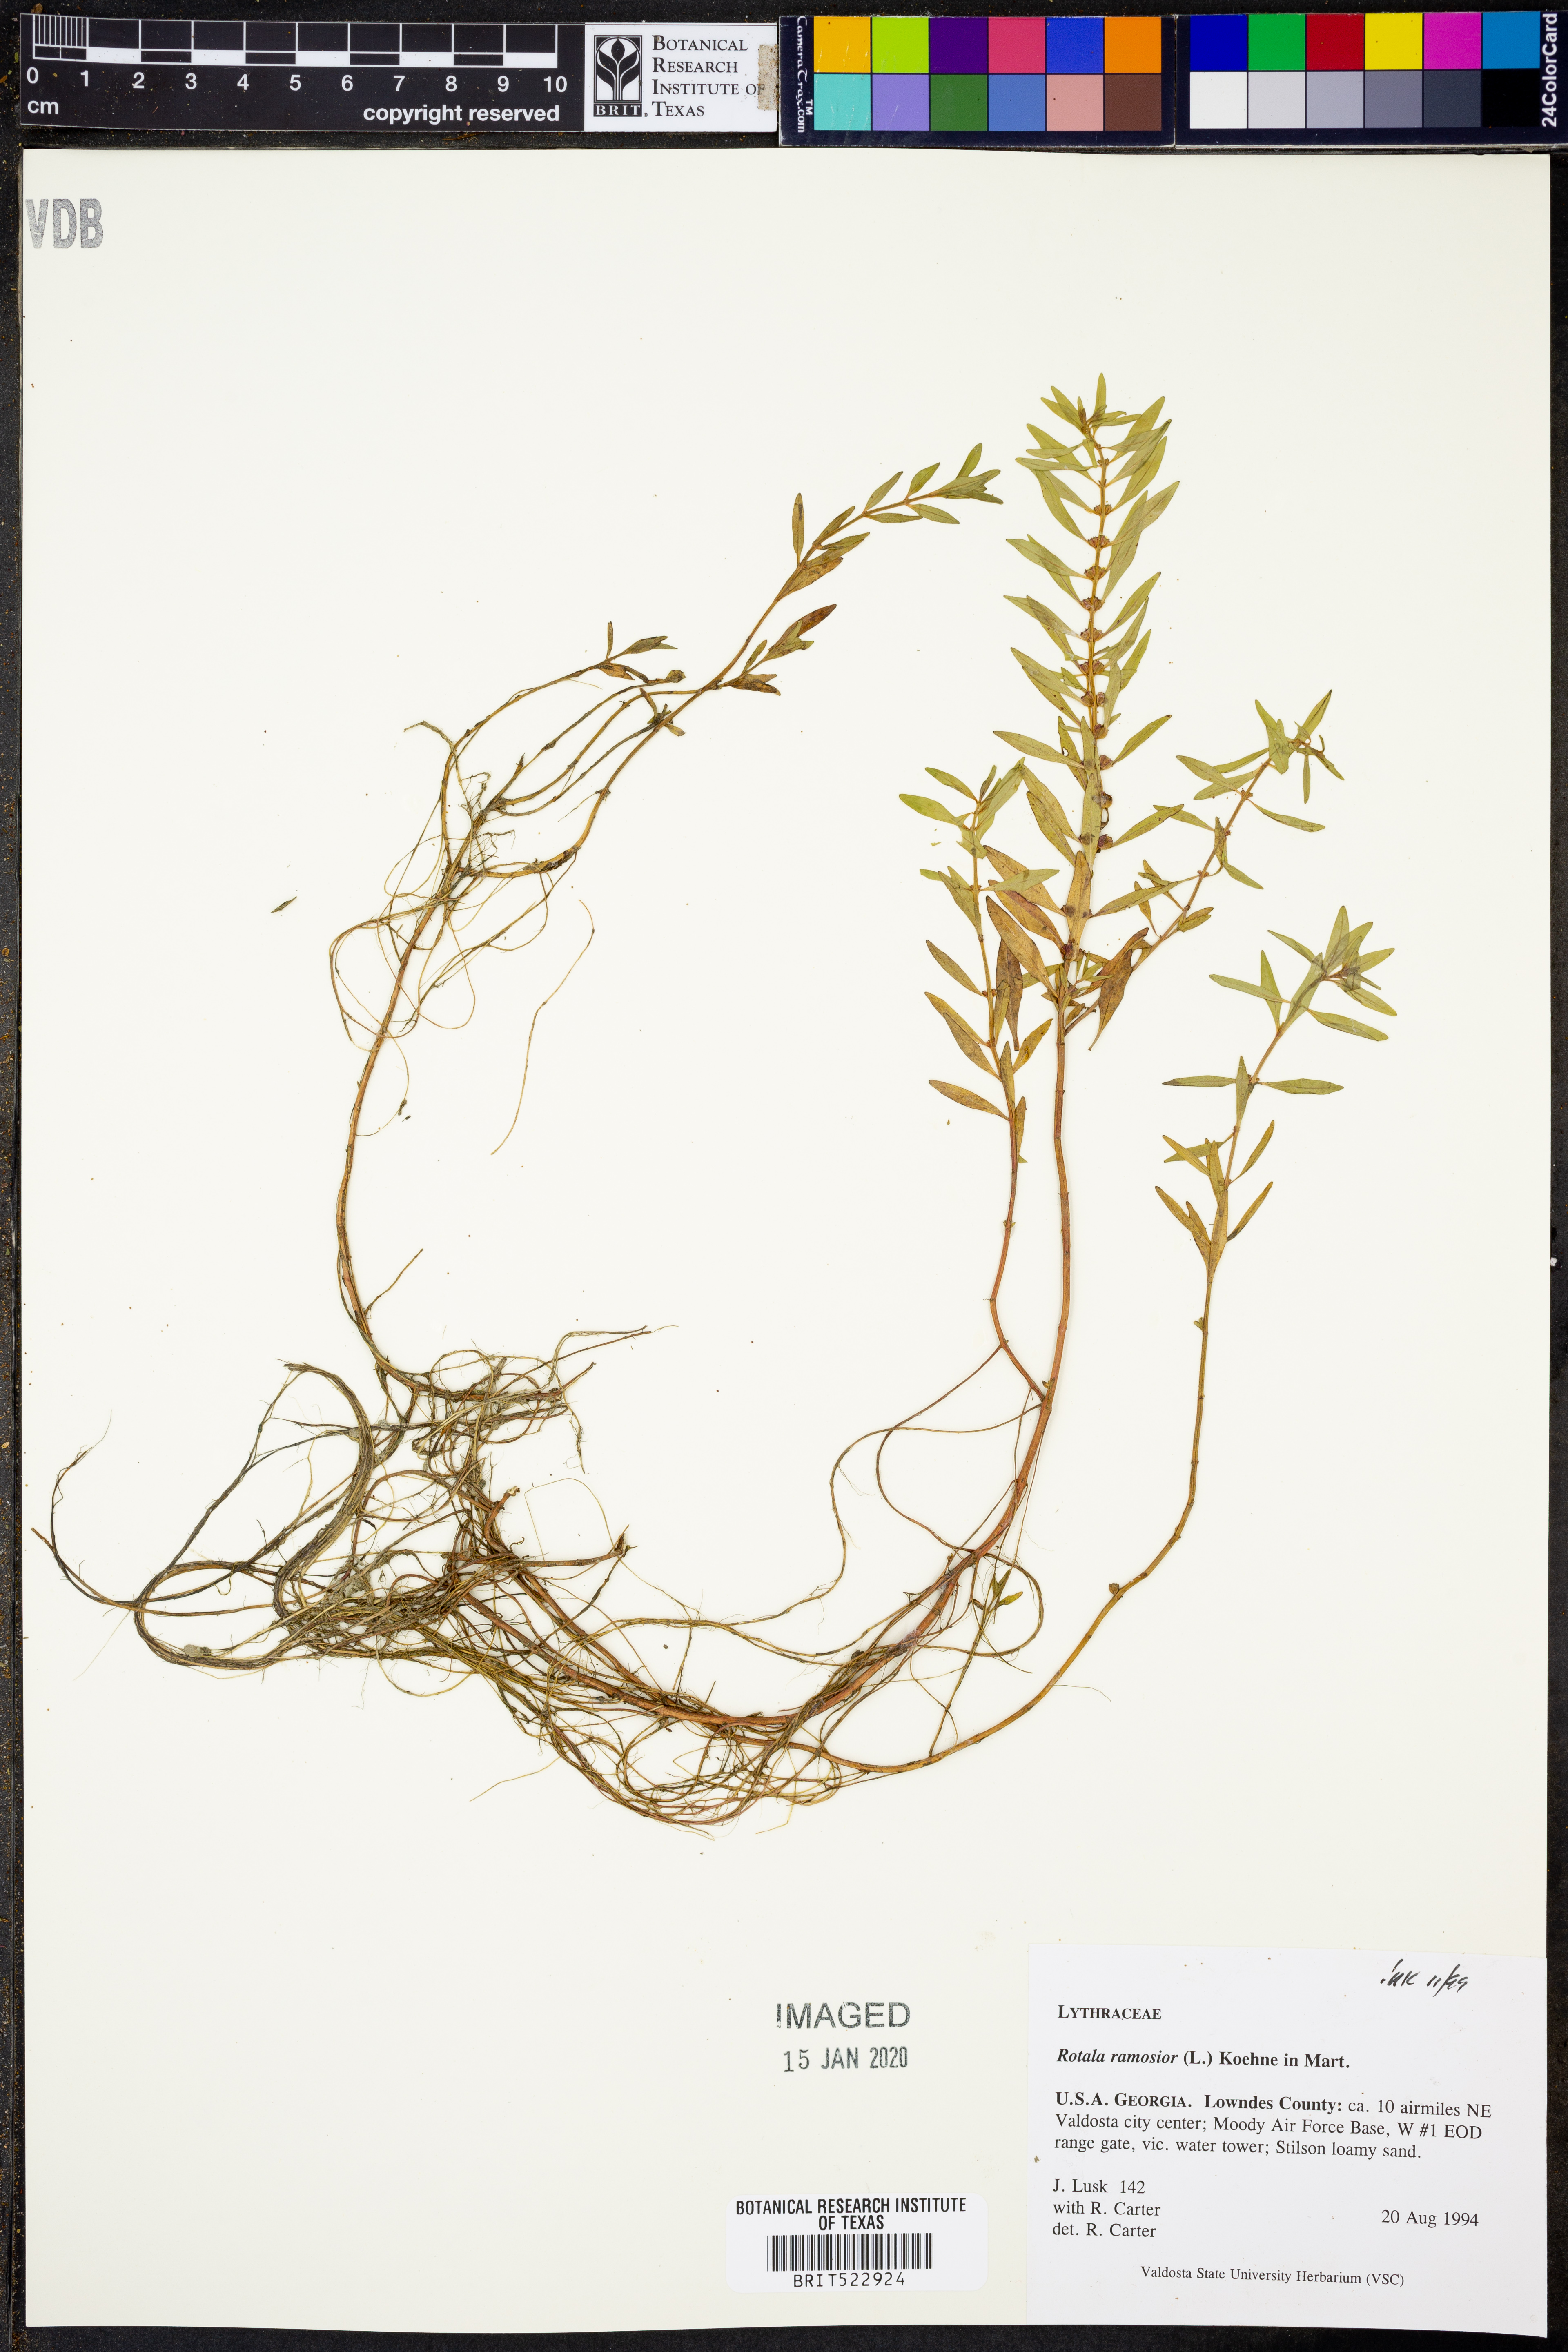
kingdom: Plantae
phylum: Tracheophyta
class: Magnoliopsida
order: Myrtales
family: Lythraceae
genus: Rotala
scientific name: Rotala ramosior
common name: Lowland rotala
